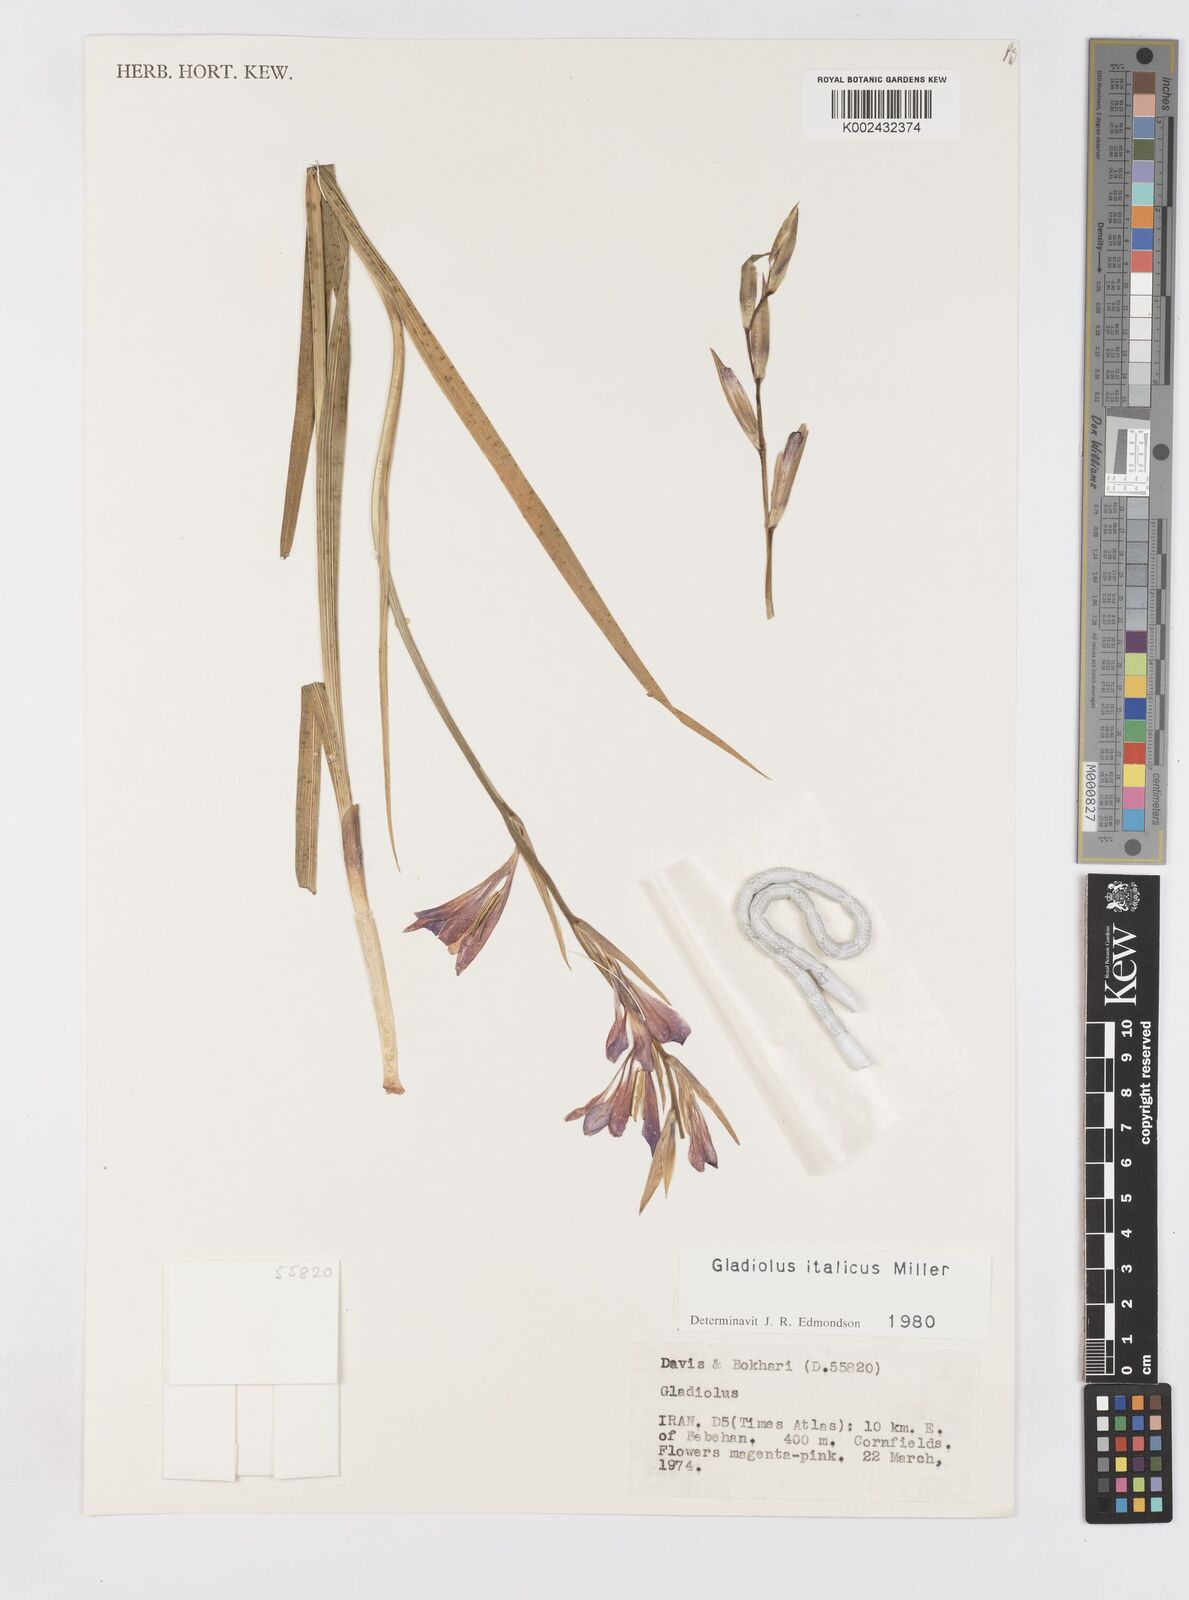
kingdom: Plantae
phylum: Tracheophyta
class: Liliopsida
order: Asparagales
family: Iridaceae
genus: Gladiolus
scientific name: Gladiolus italicus
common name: Field gladiolus
